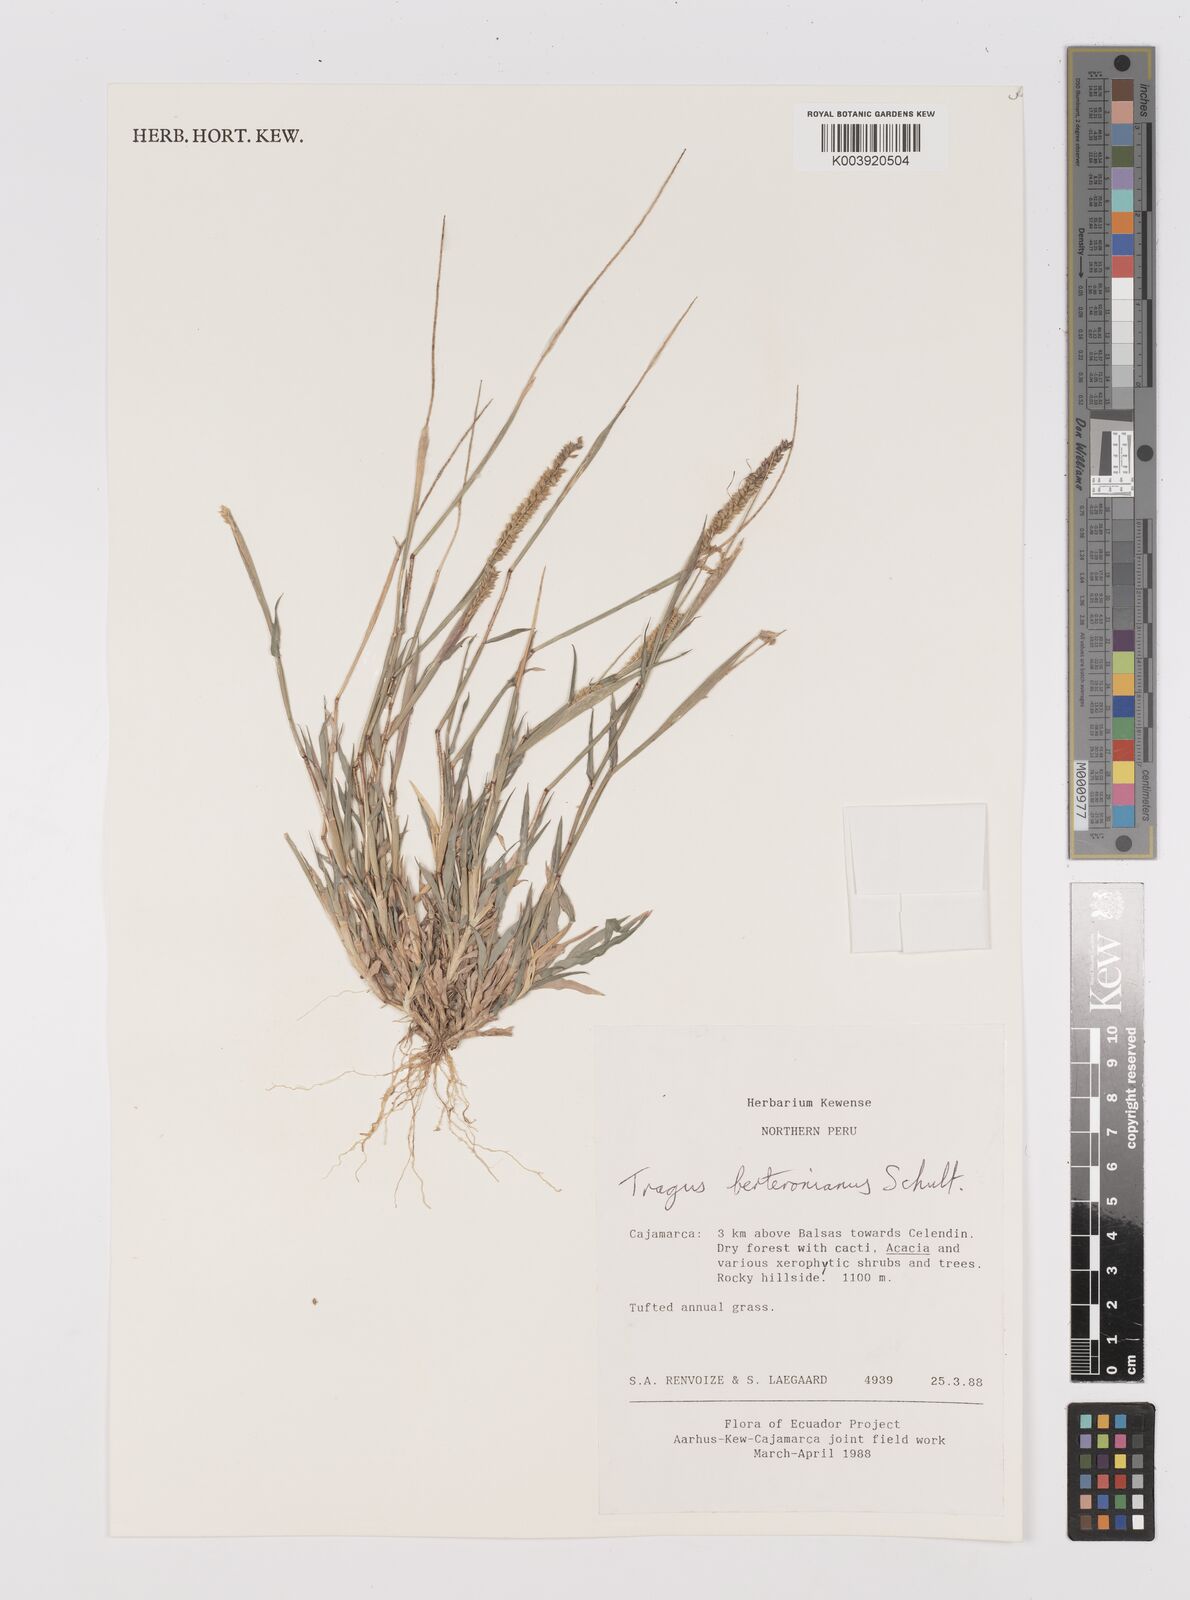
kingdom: Plantae
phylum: Tracheophyta
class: Liliopsida
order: Poales
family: Poaceae
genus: Tragus
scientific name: Tragus berteronianus
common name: African bur-grass
